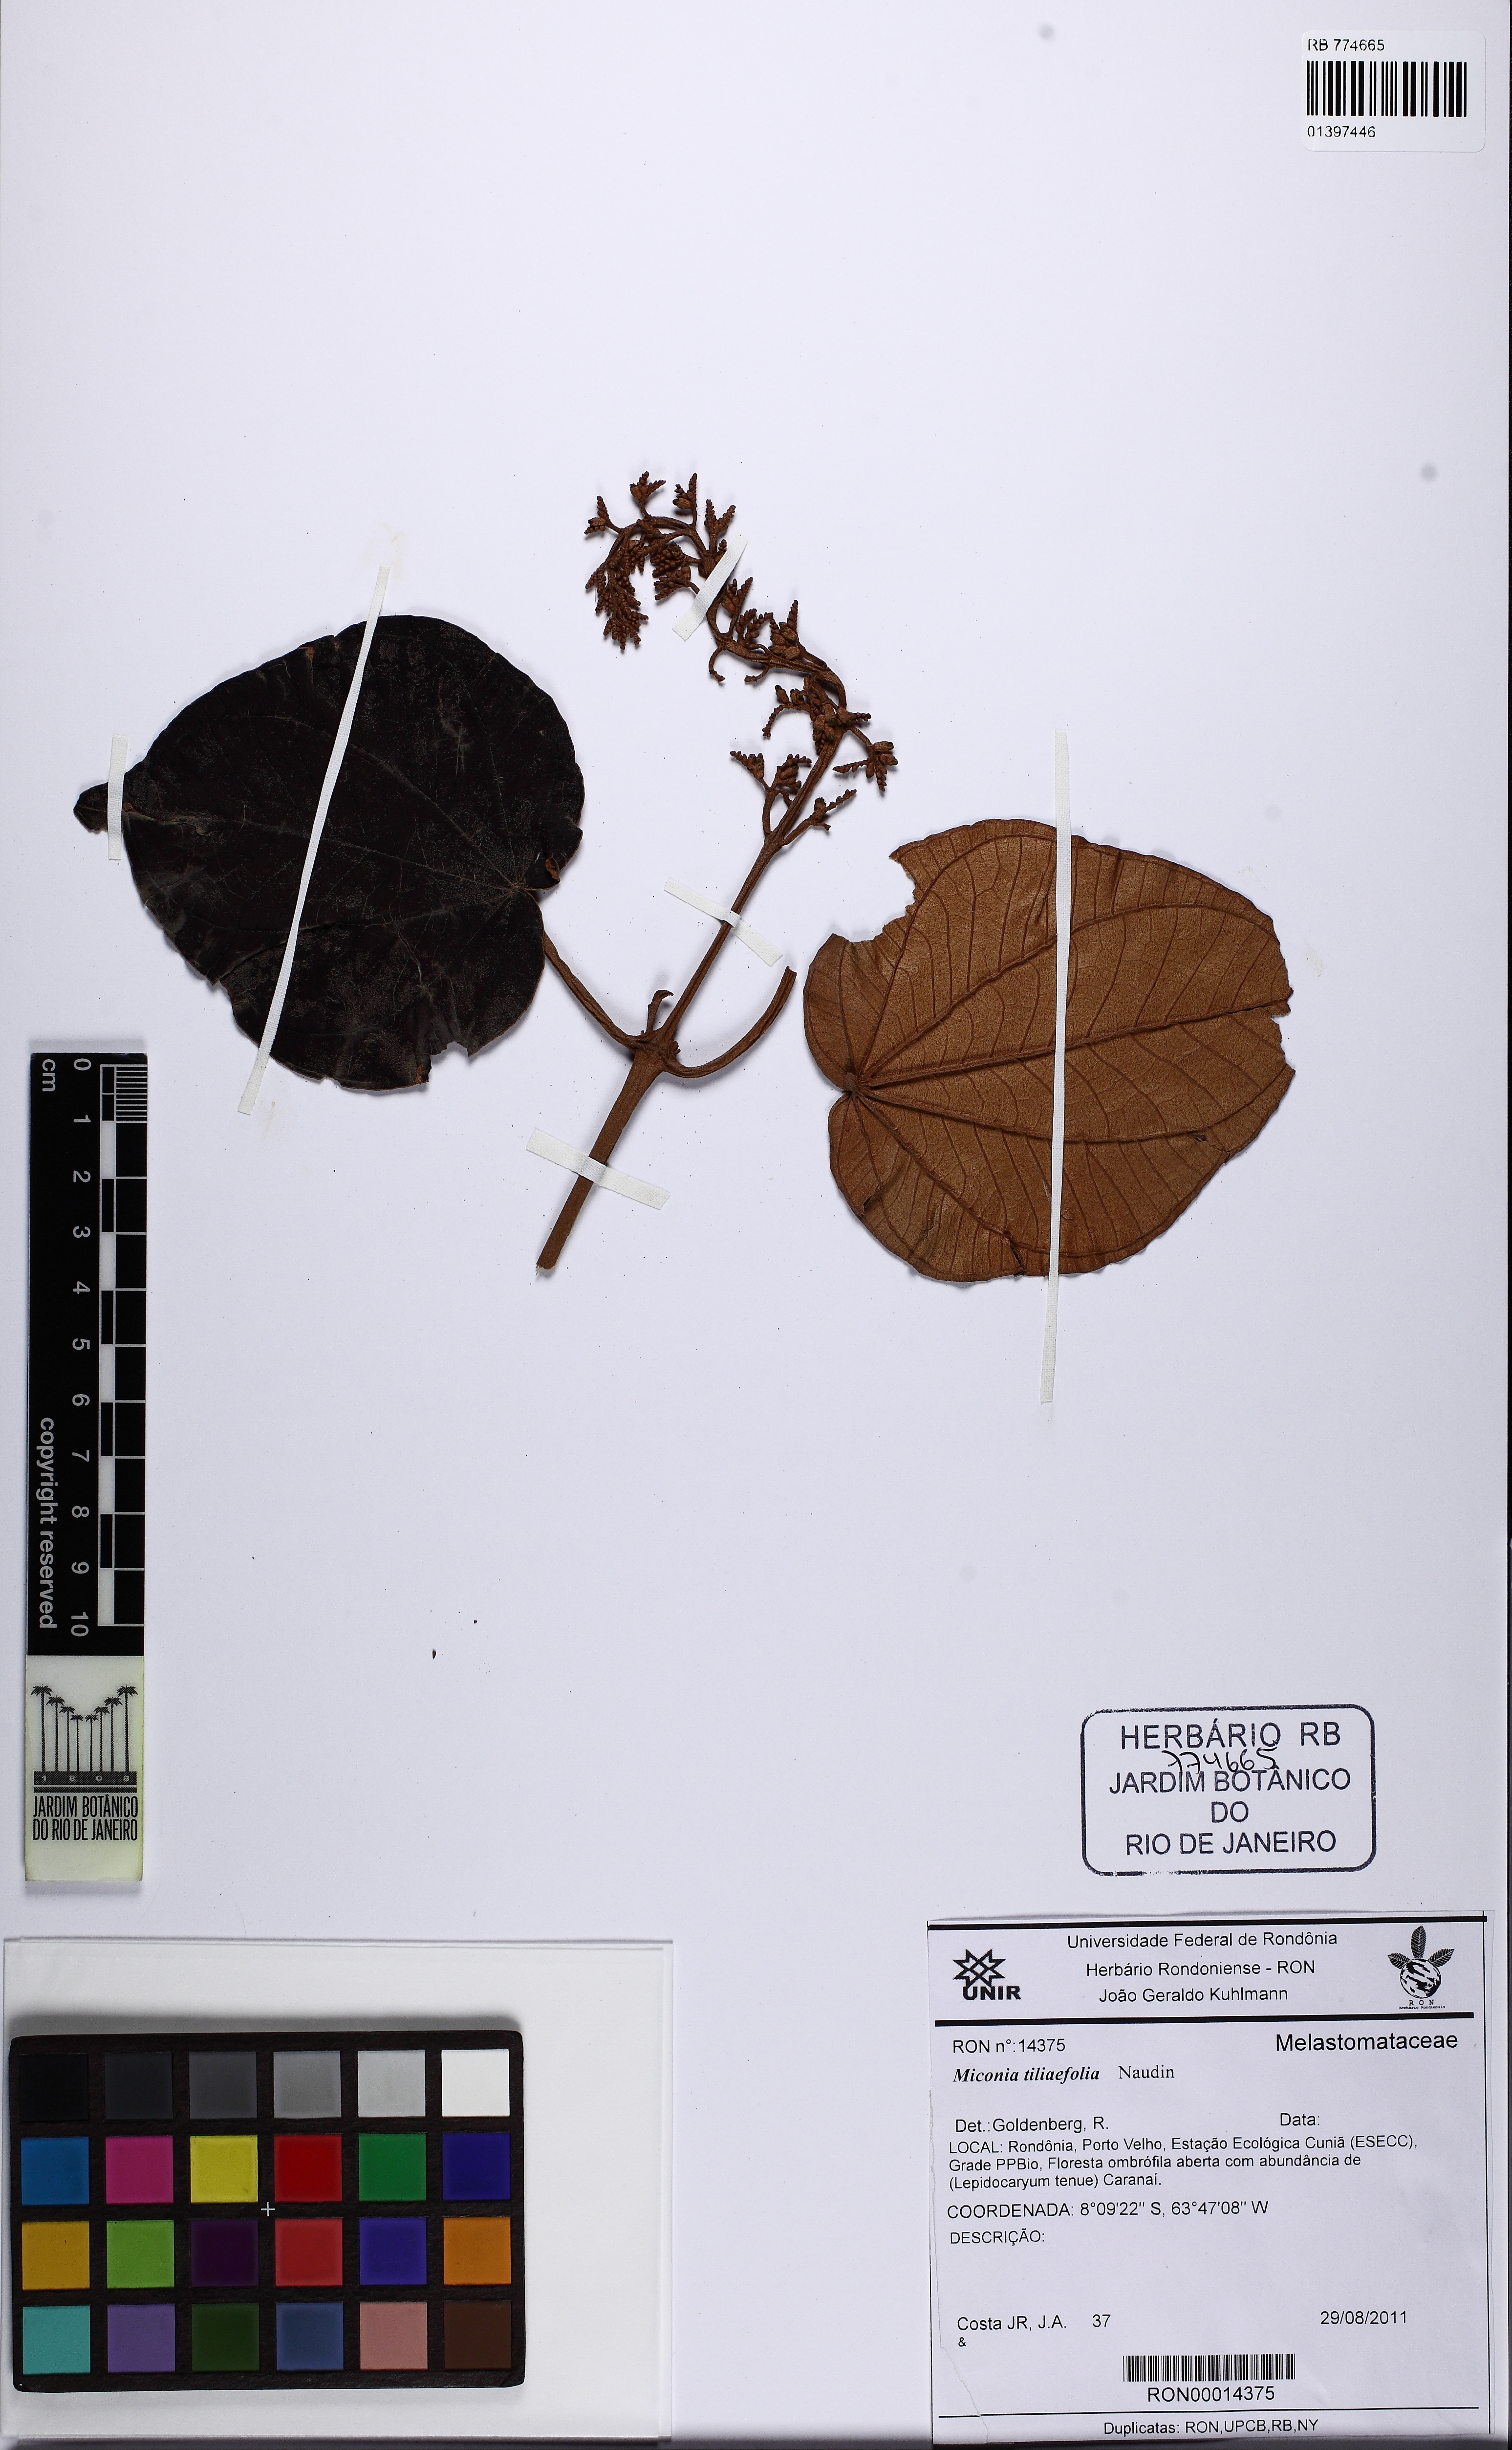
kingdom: Plantae
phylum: Tracheophyta
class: Magnoliopsida
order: Myrtales
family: Melastomataceae
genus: Miconia
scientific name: Miconia tiliifolia
